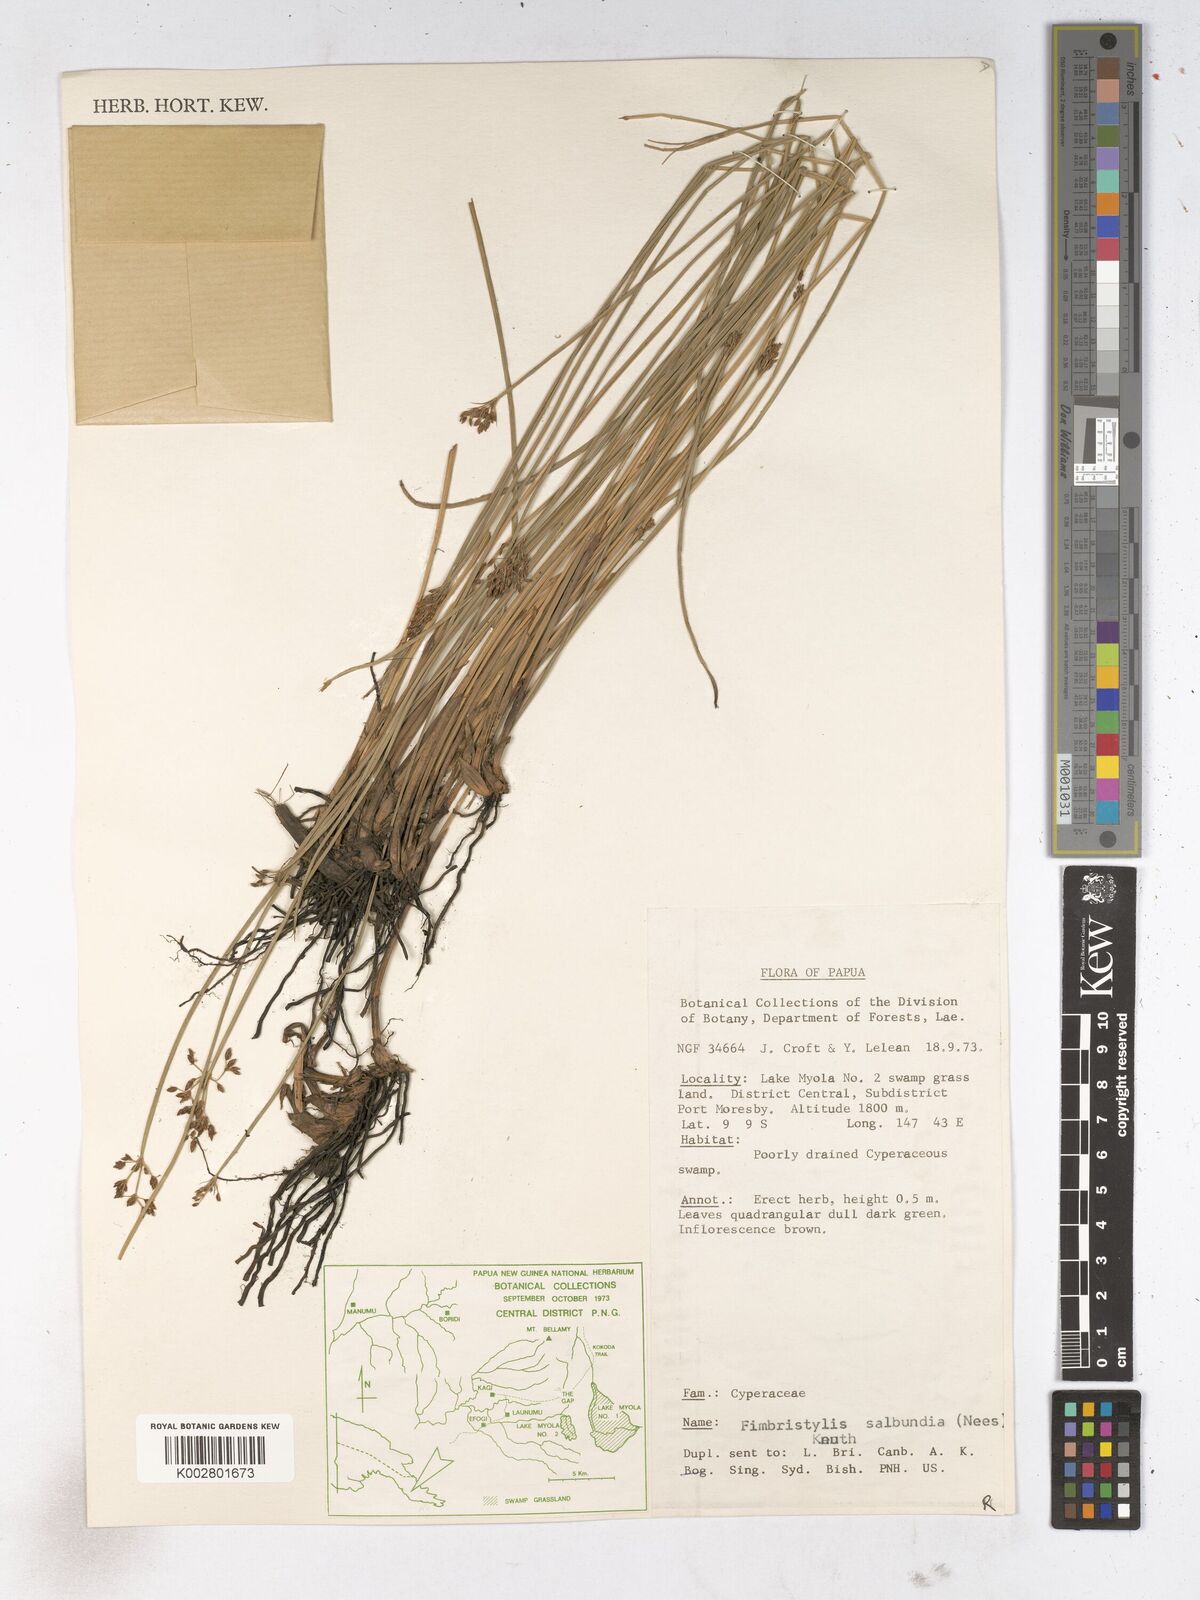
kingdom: Plantae
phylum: Tracheophyta
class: Liliopsida
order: Poales
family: Cyperaceae
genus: Fimbristylis
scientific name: Fimbristylis salbundia
